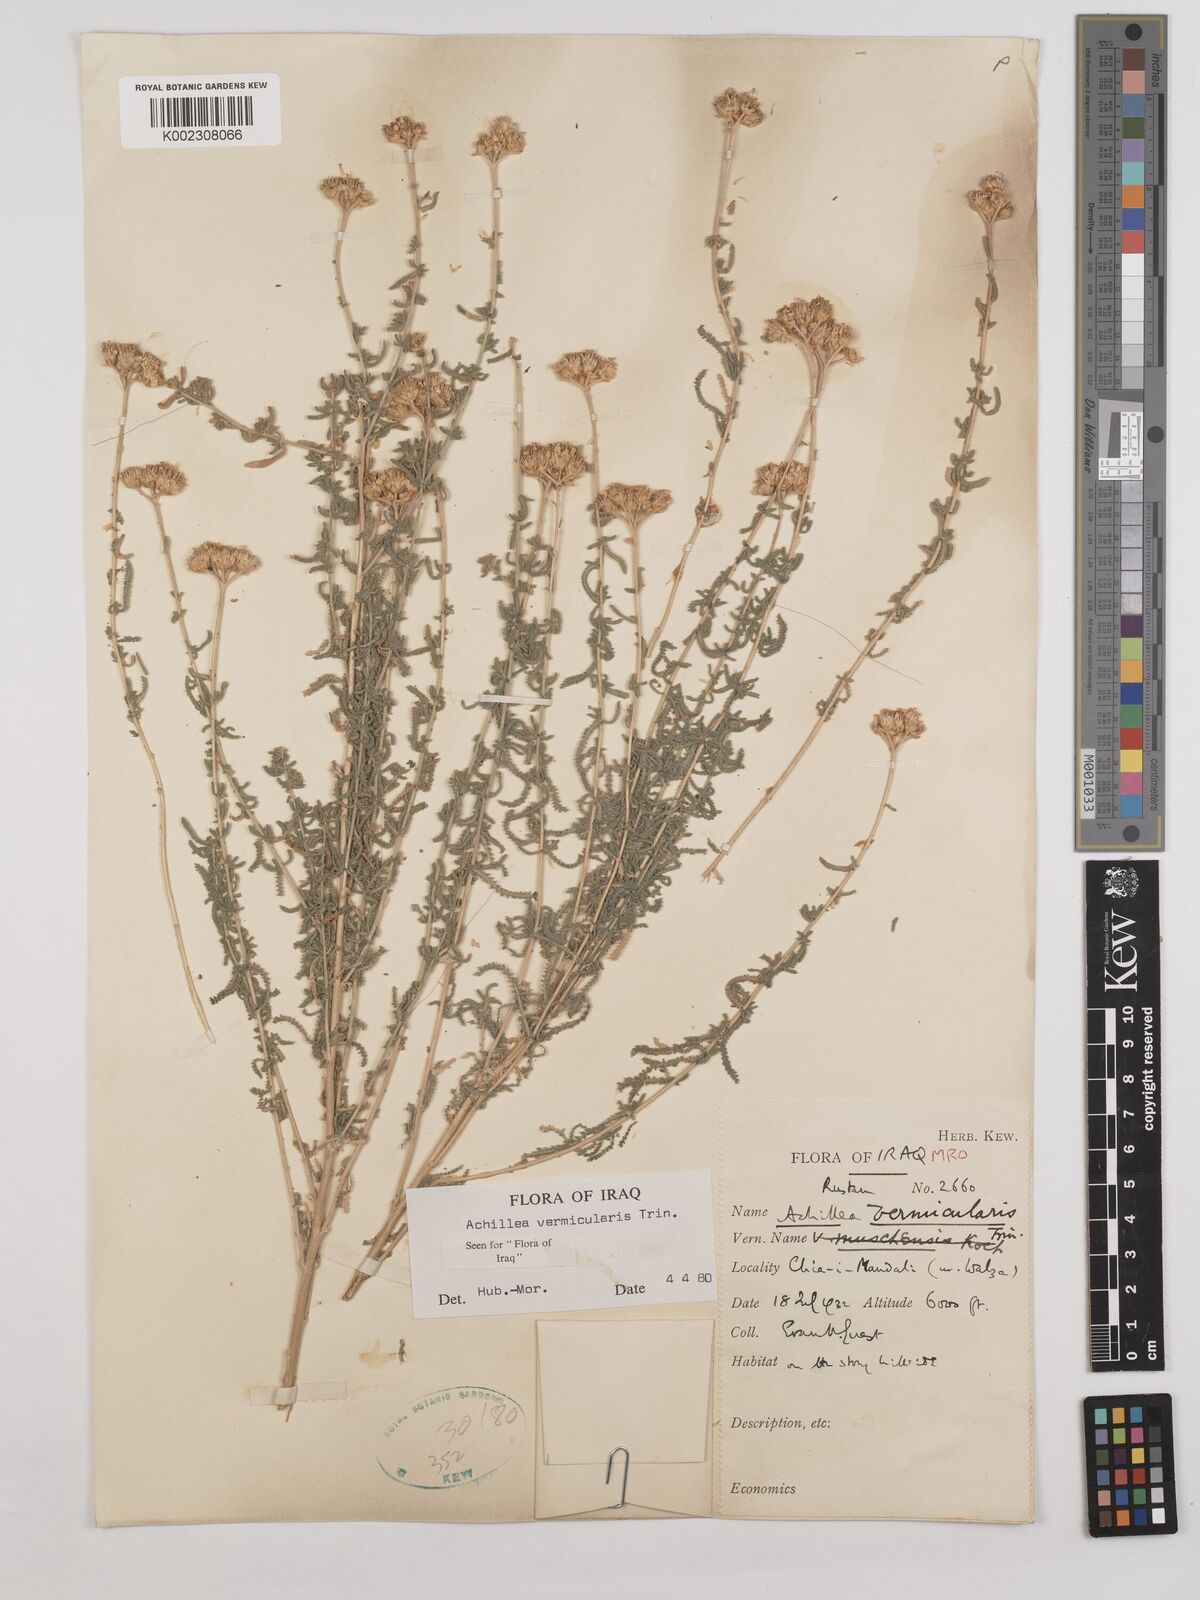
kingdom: Plantae
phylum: Tracheophyta
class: Magnoliopsida
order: Asterales
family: Asteraceae
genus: Achillea
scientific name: Achillea vermicularis
